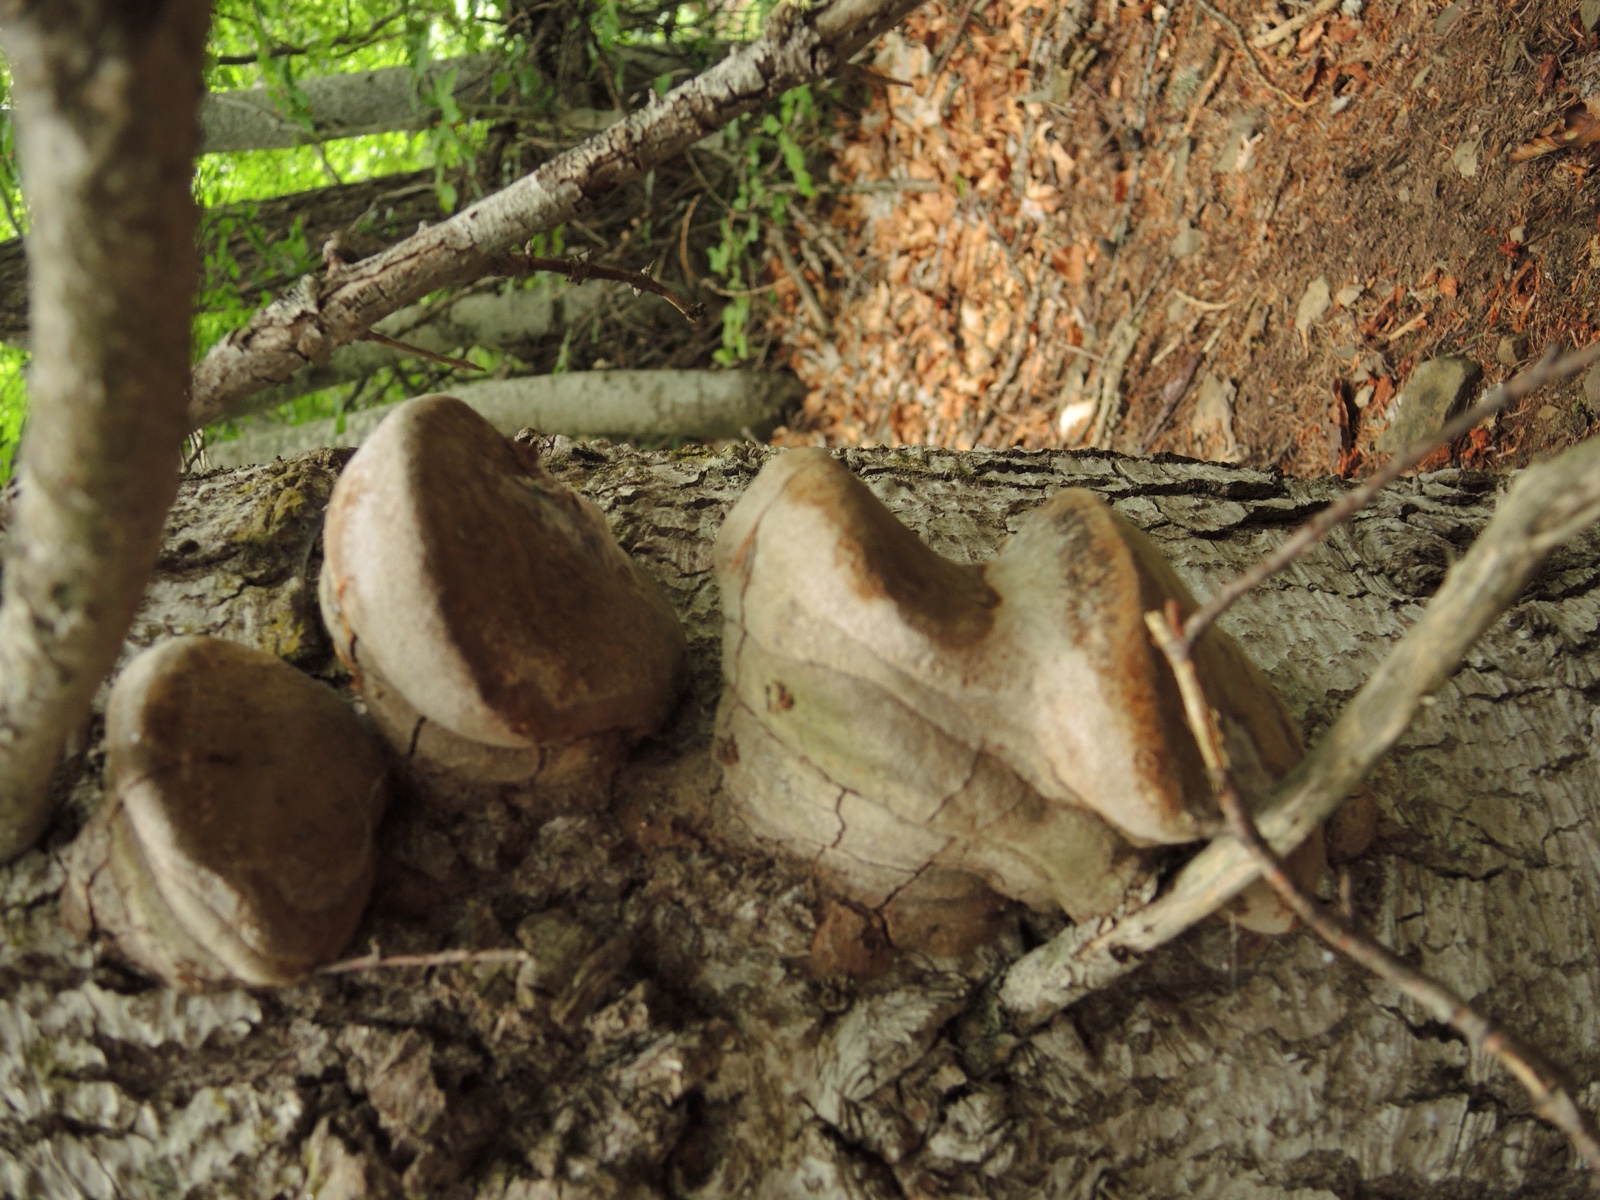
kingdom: Fungi
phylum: Basidiomycota
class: Agaricomycetes
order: Hymenochaetales
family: Hymenochaetaceae
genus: Phellinus
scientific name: Phellinus hartigii
